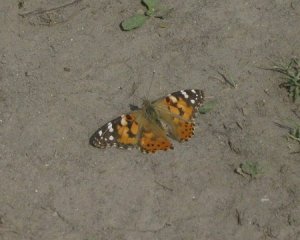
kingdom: Animalia
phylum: Arthropoda
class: Insecta
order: Lepidoptera
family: Nymphalidae
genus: Vanessa
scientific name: Vanessa cardui
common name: Painted Lady
